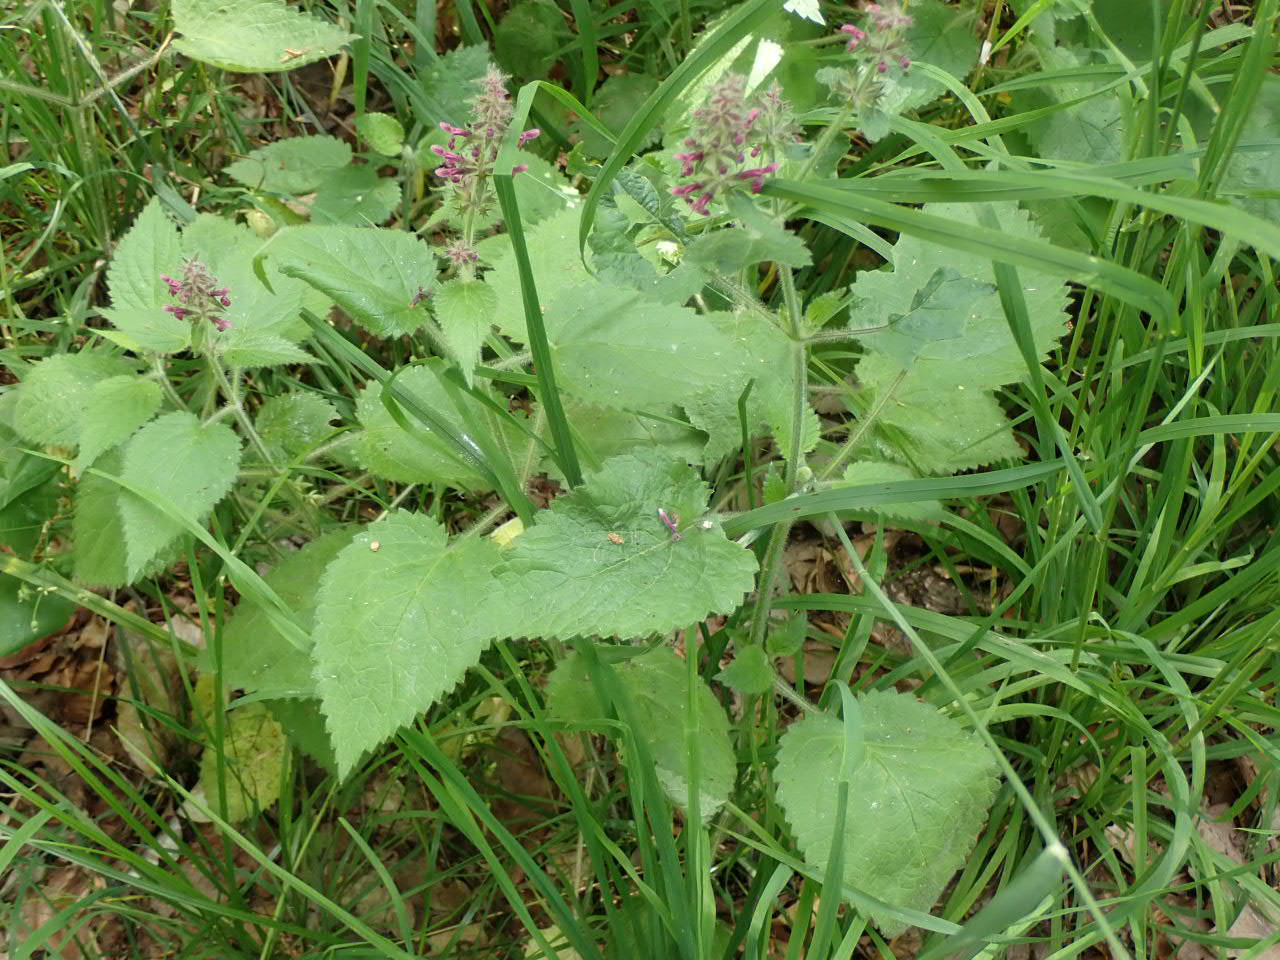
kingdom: Plantae
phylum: Tracheophyta
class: Magnoliopsida
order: Lamiales
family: Lamiaceae
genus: Stachys
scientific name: Stachys sylvatica
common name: Skov-galtetand
